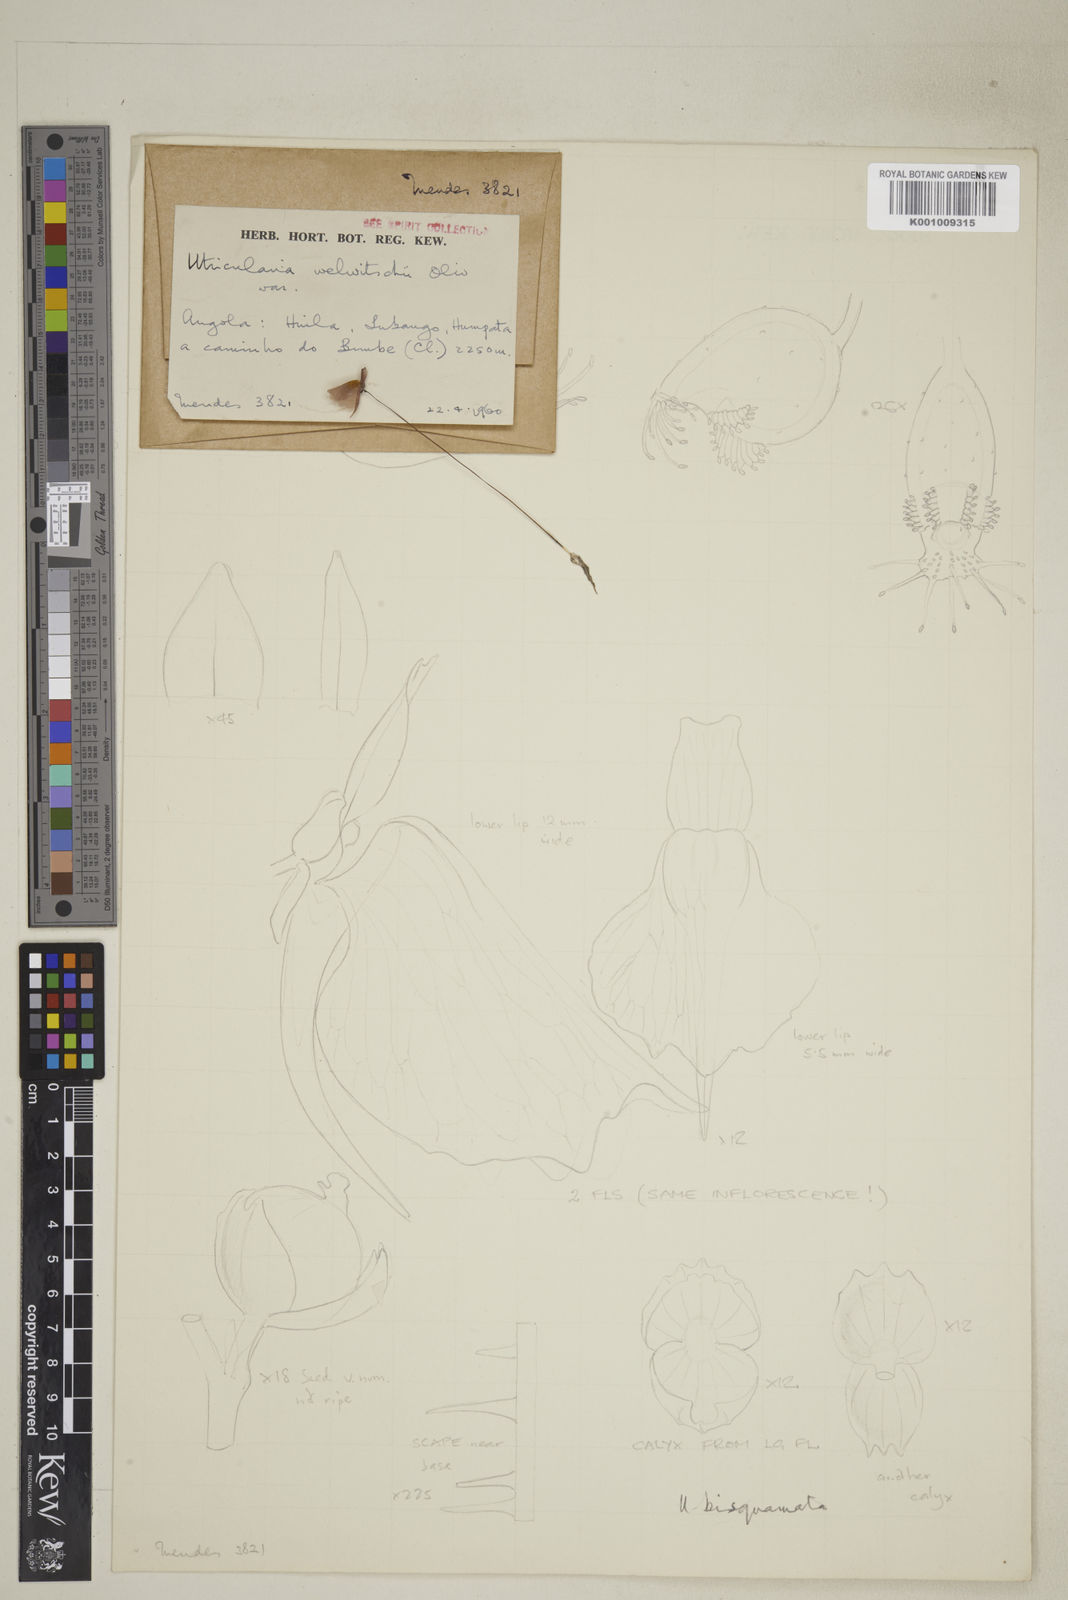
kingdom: Plantae
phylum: Tracheophyta
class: Magnoliopsida
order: Lamiales
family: Lentibulariaceae
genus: Utricularia
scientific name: Utricularia bisquamata
